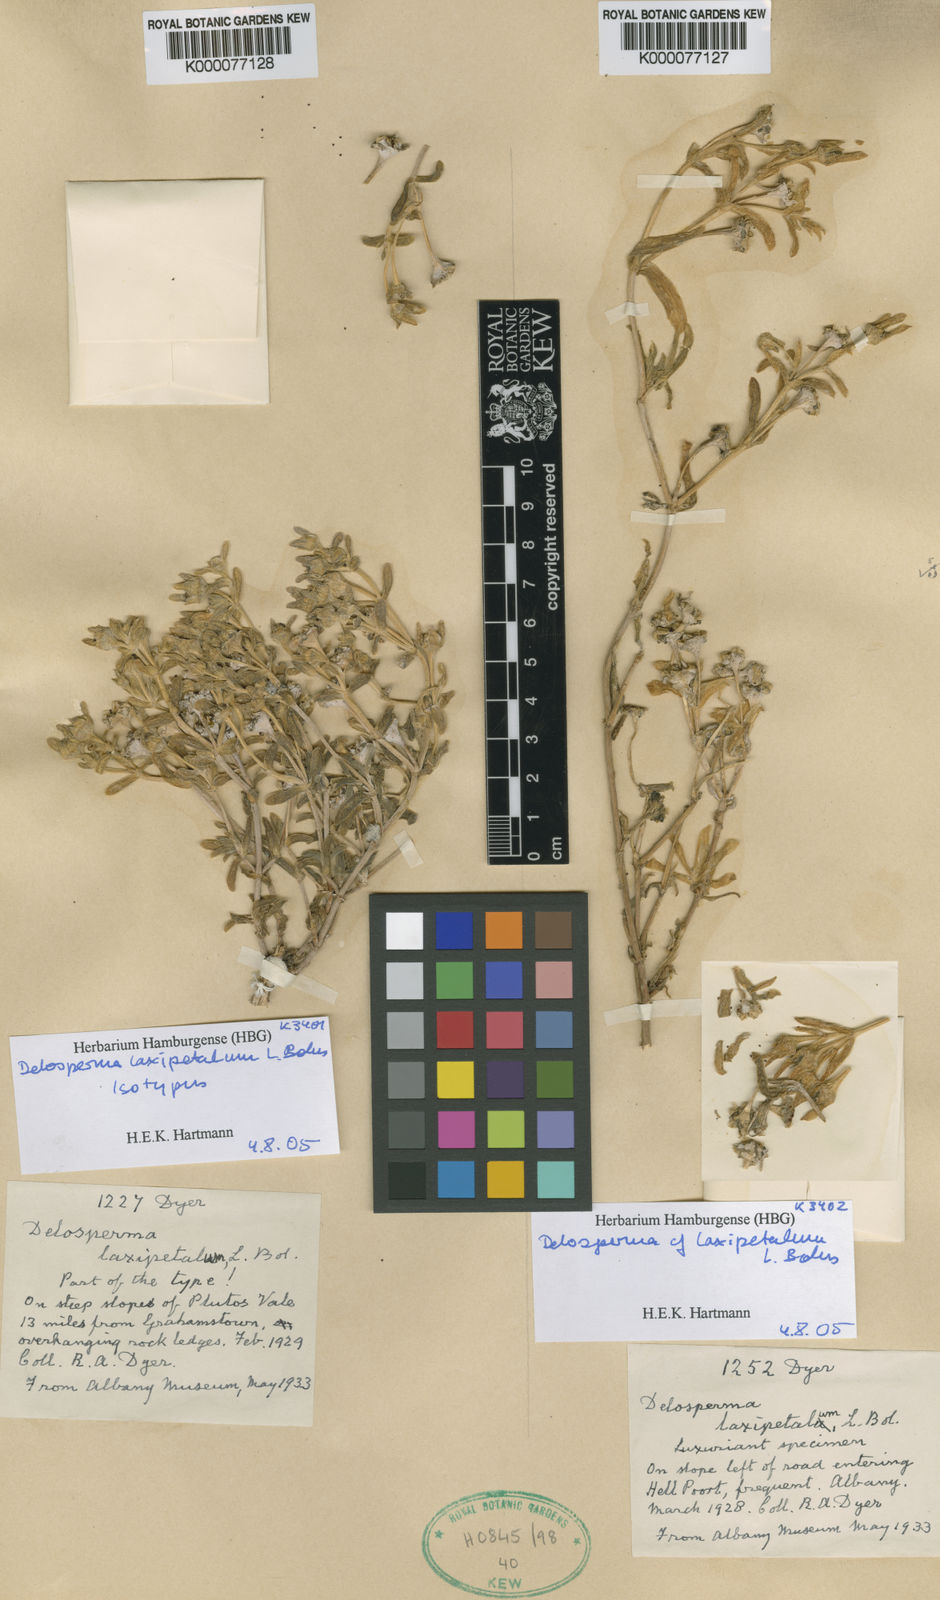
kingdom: Plantae
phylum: Tracheophyta
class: Magnoliopsida
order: Caryophyllales
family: Aizoaceae
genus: Delosperma
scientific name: Delosperma laxipetalum
